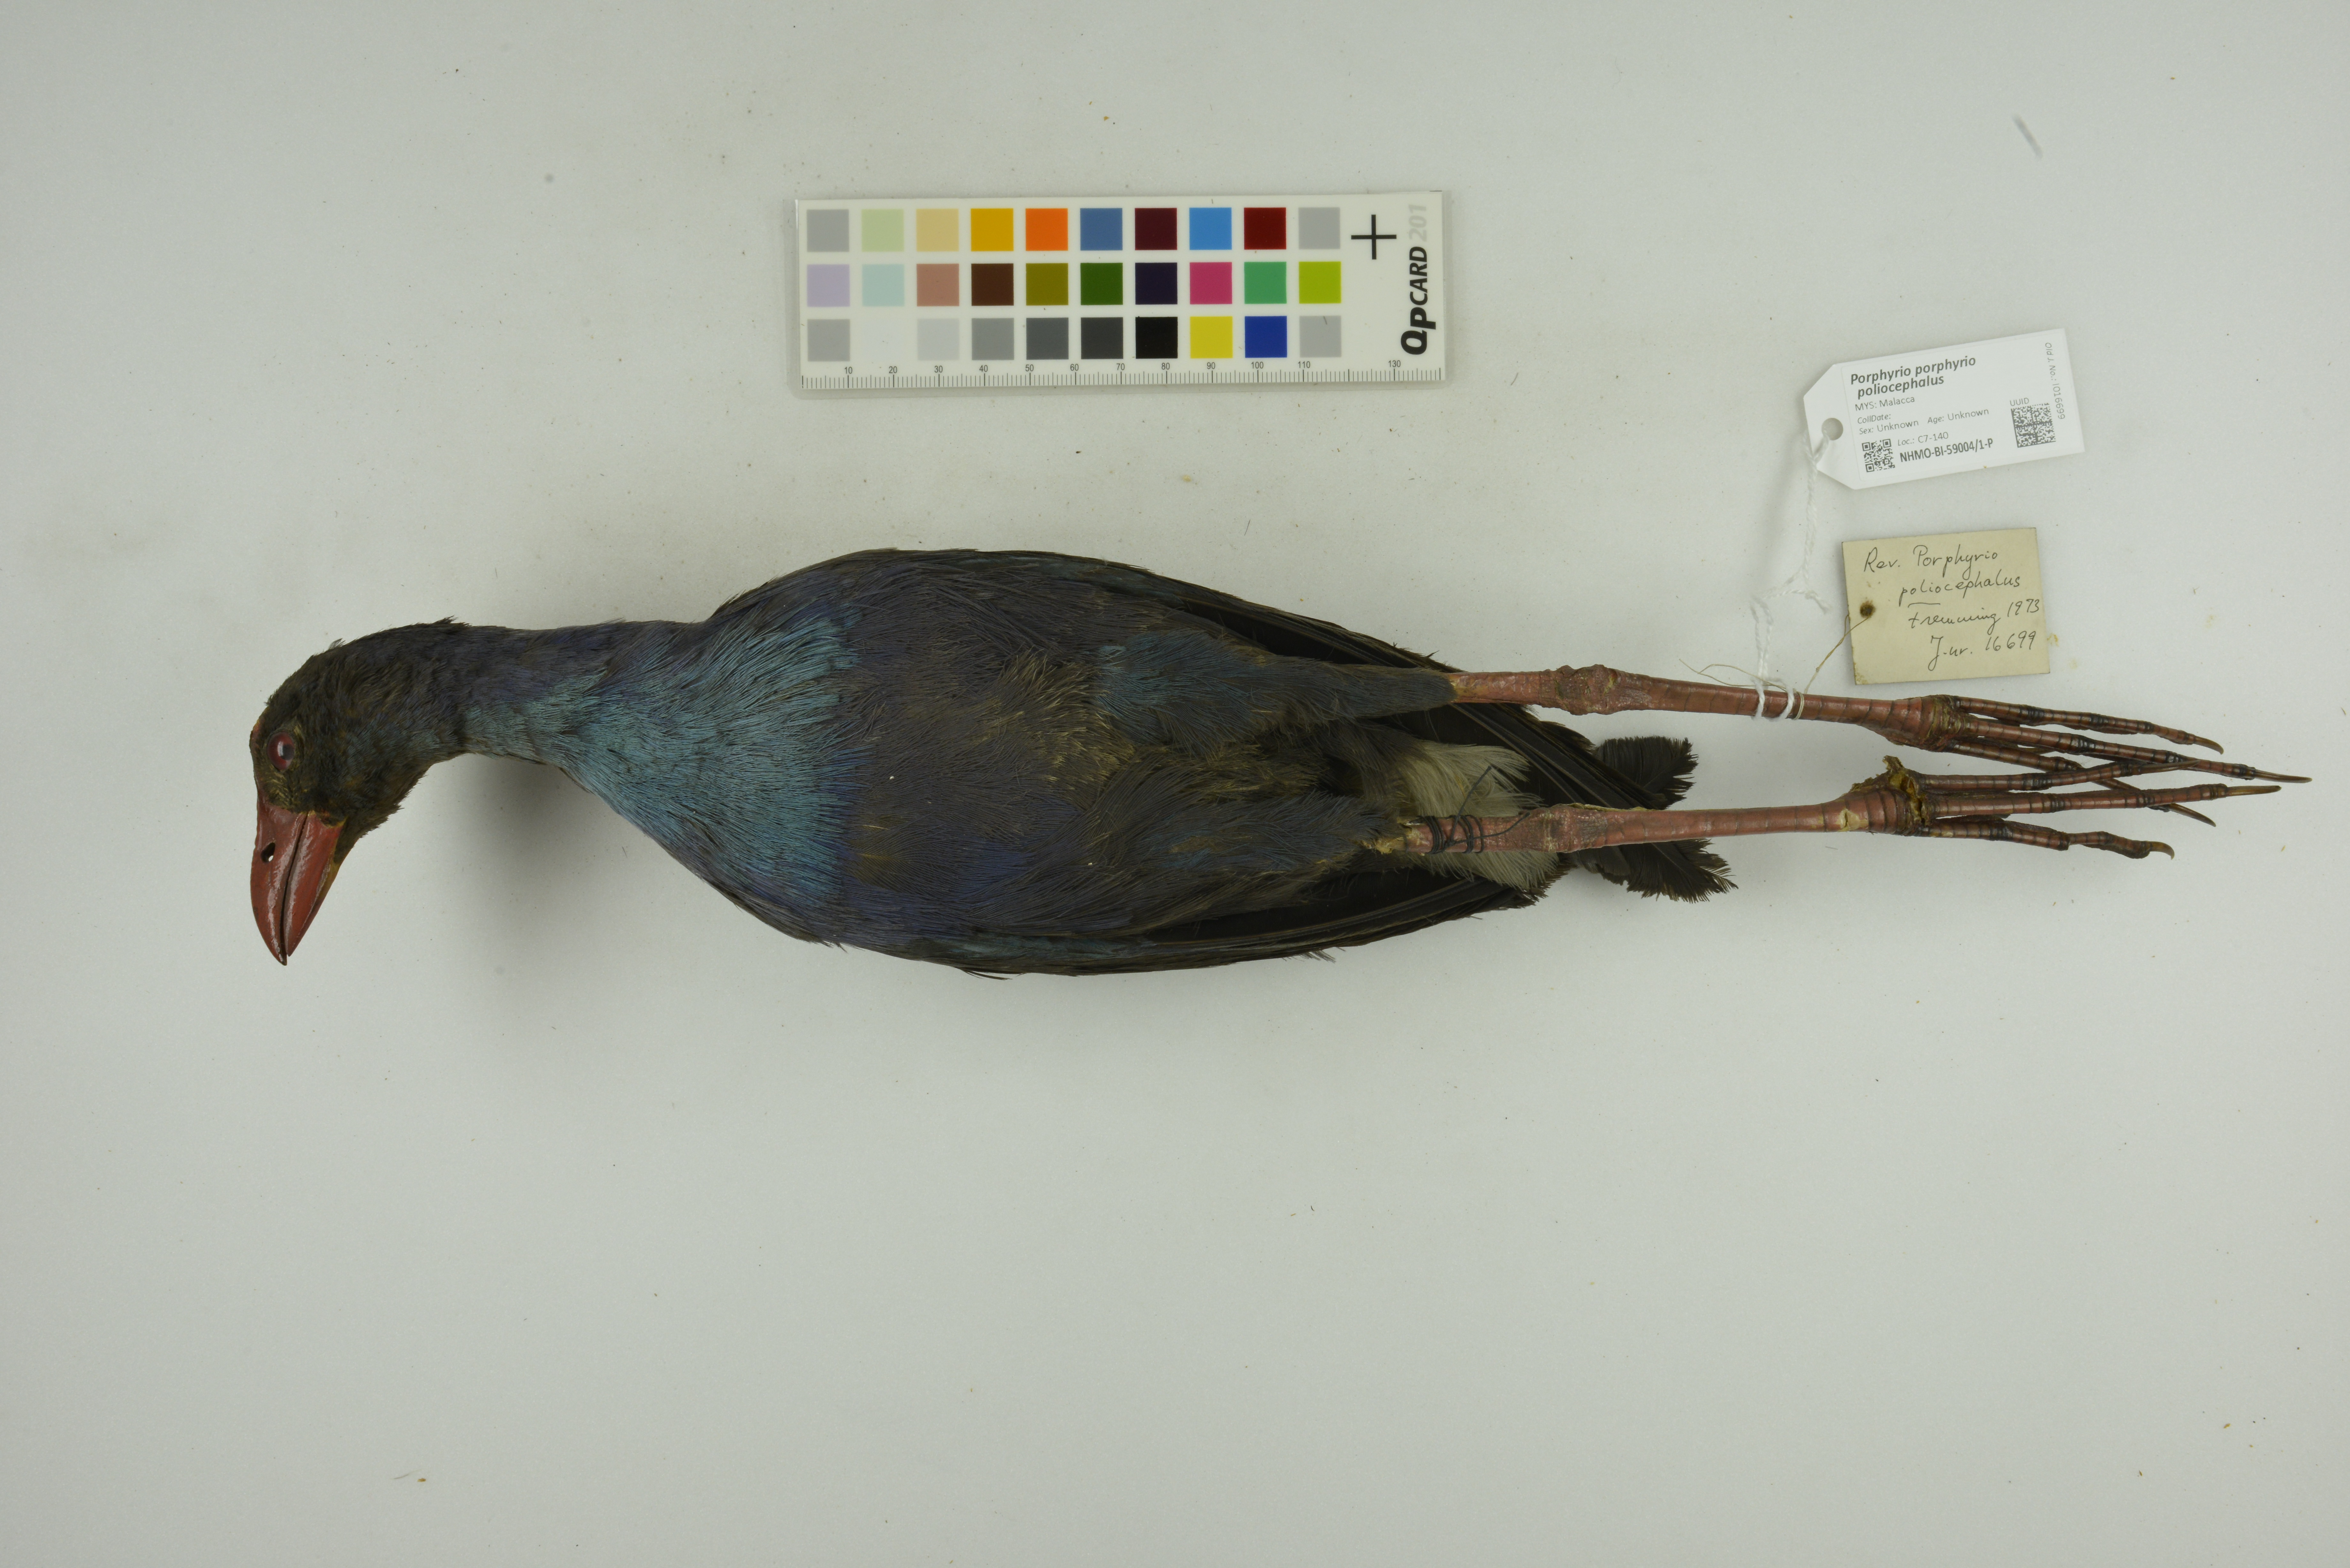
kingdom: Animalia
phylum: Chordata
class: Aves
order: Gruiformes
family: Rallidae
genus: Porphyrio
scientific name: Porphyrio porphyrio
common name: Purple swamphen
